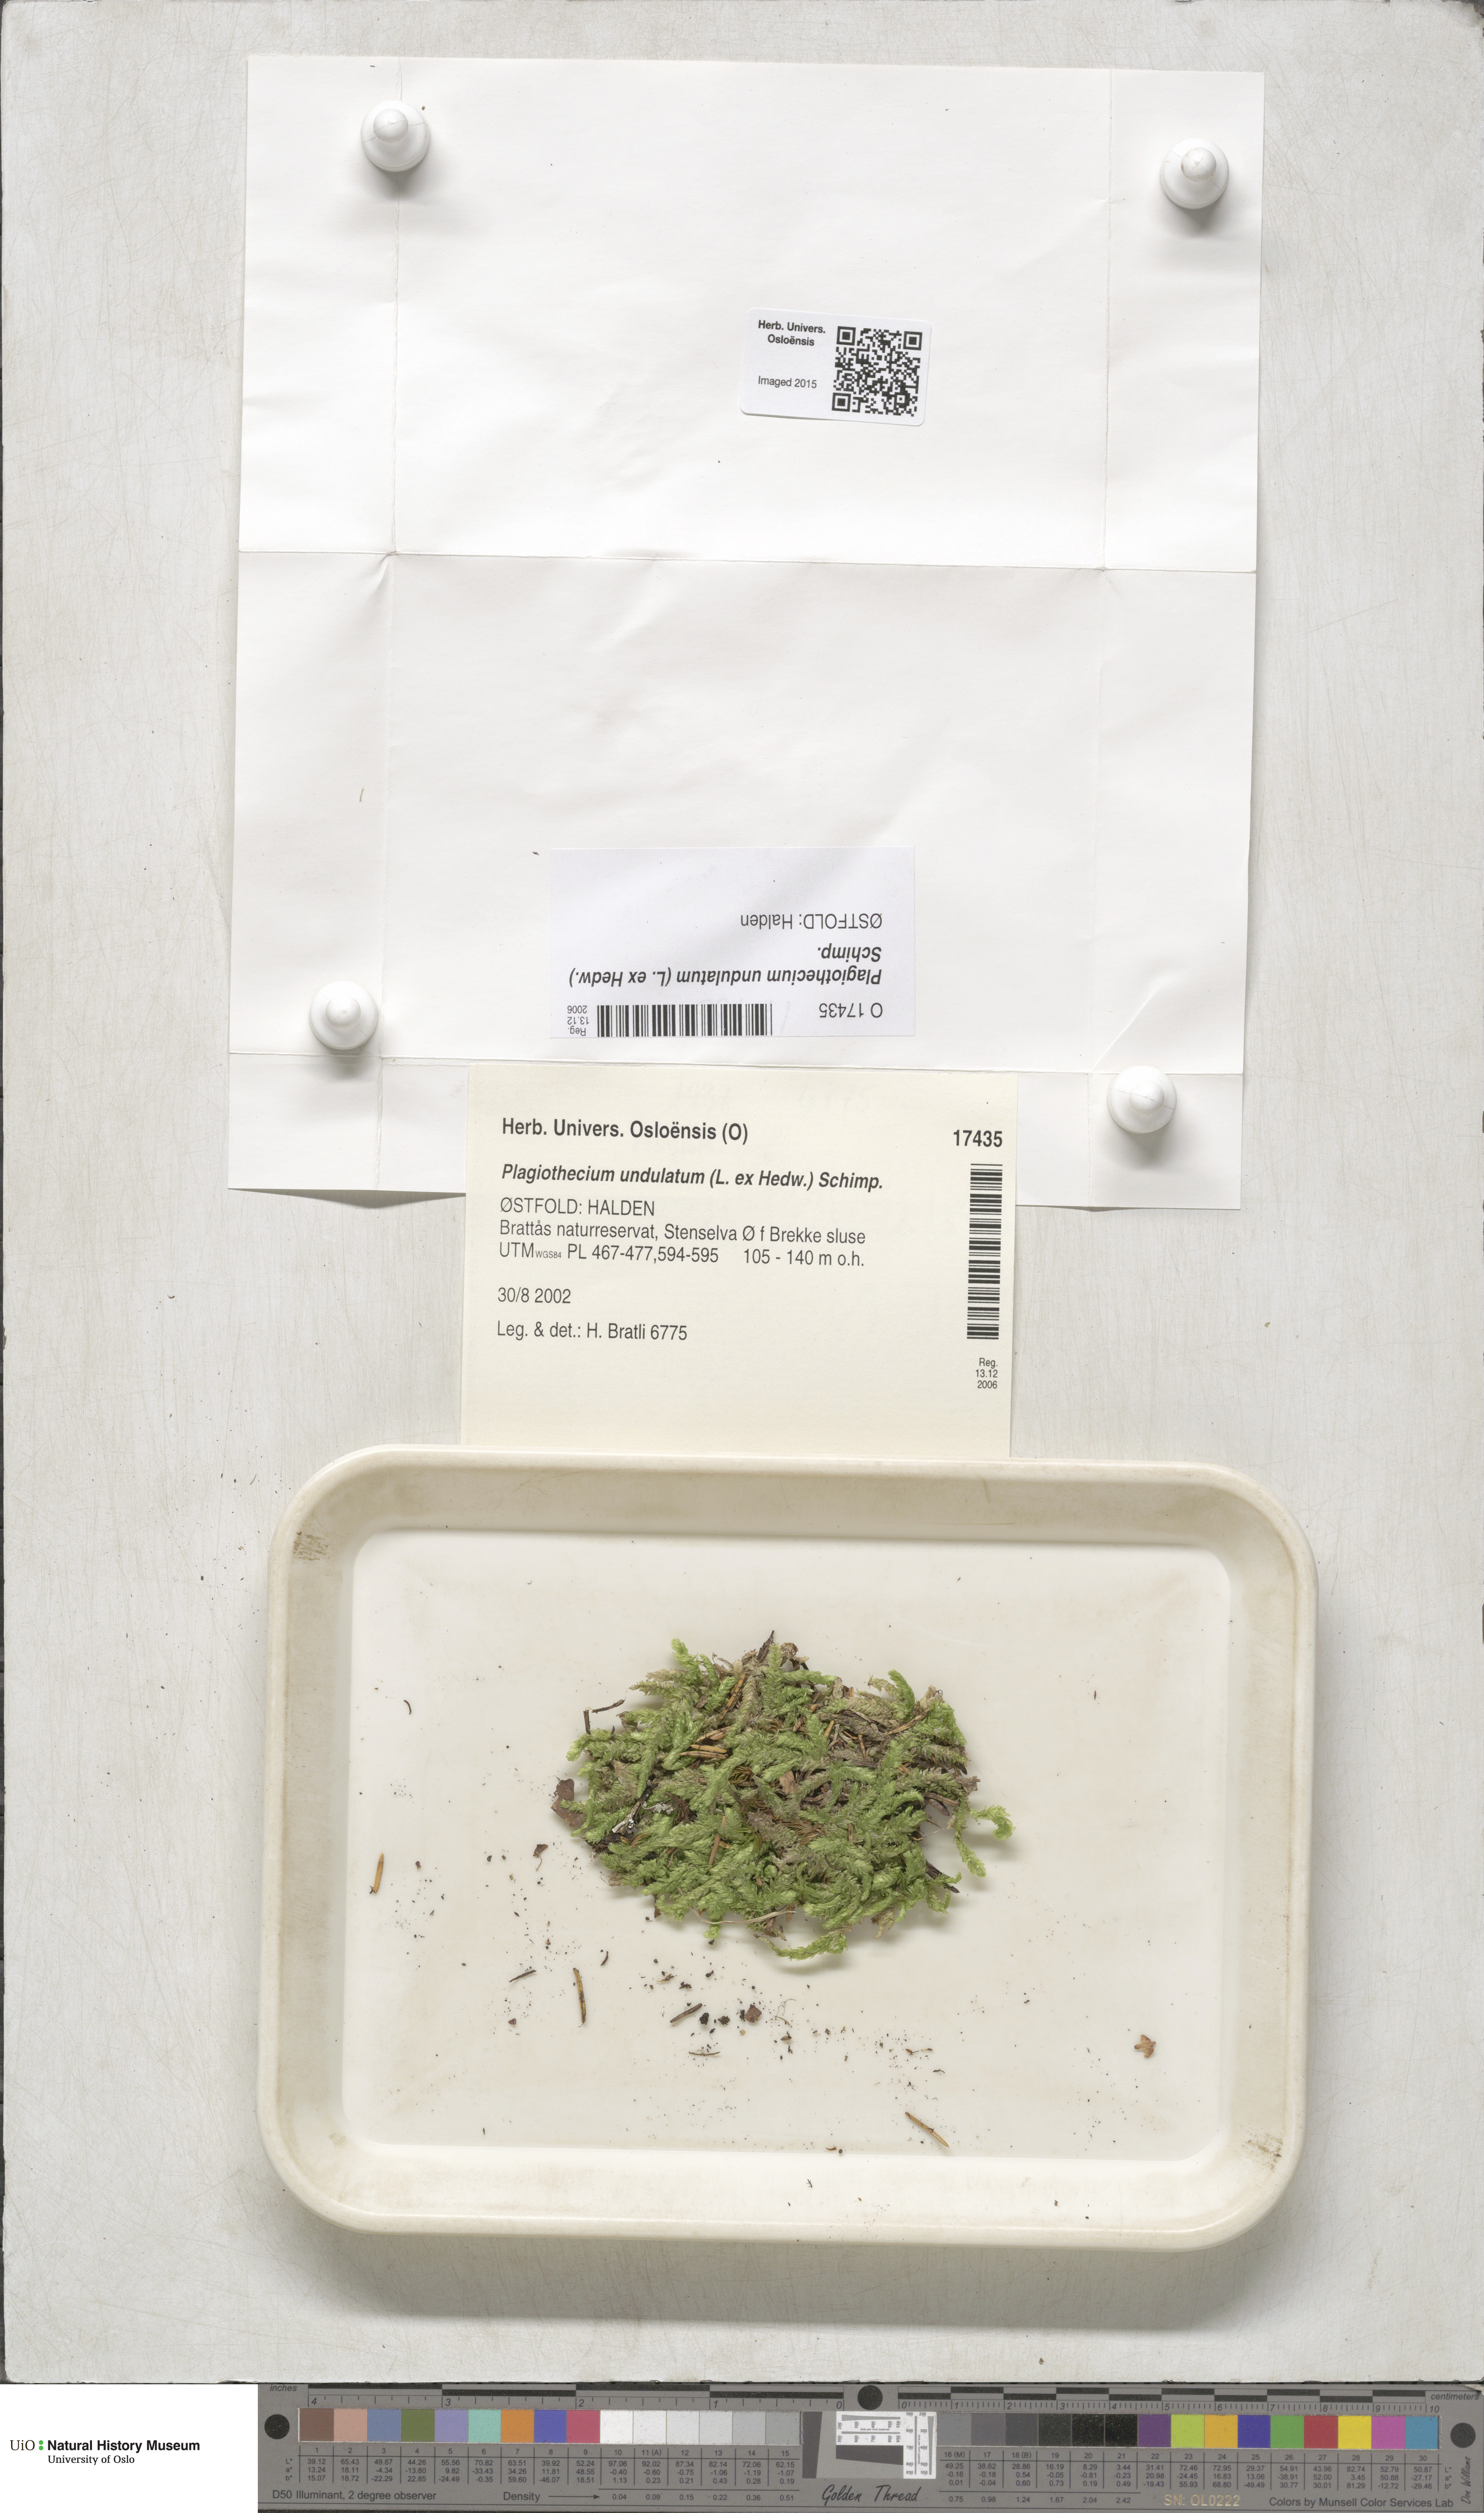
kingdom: Plantae
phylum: Bryophyta
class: Bryopsida
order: Hypnales
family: Plagiotheciaceae
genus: Plagiothecium
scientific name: Plagiothecium undulatum
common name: Waved silk-moss
